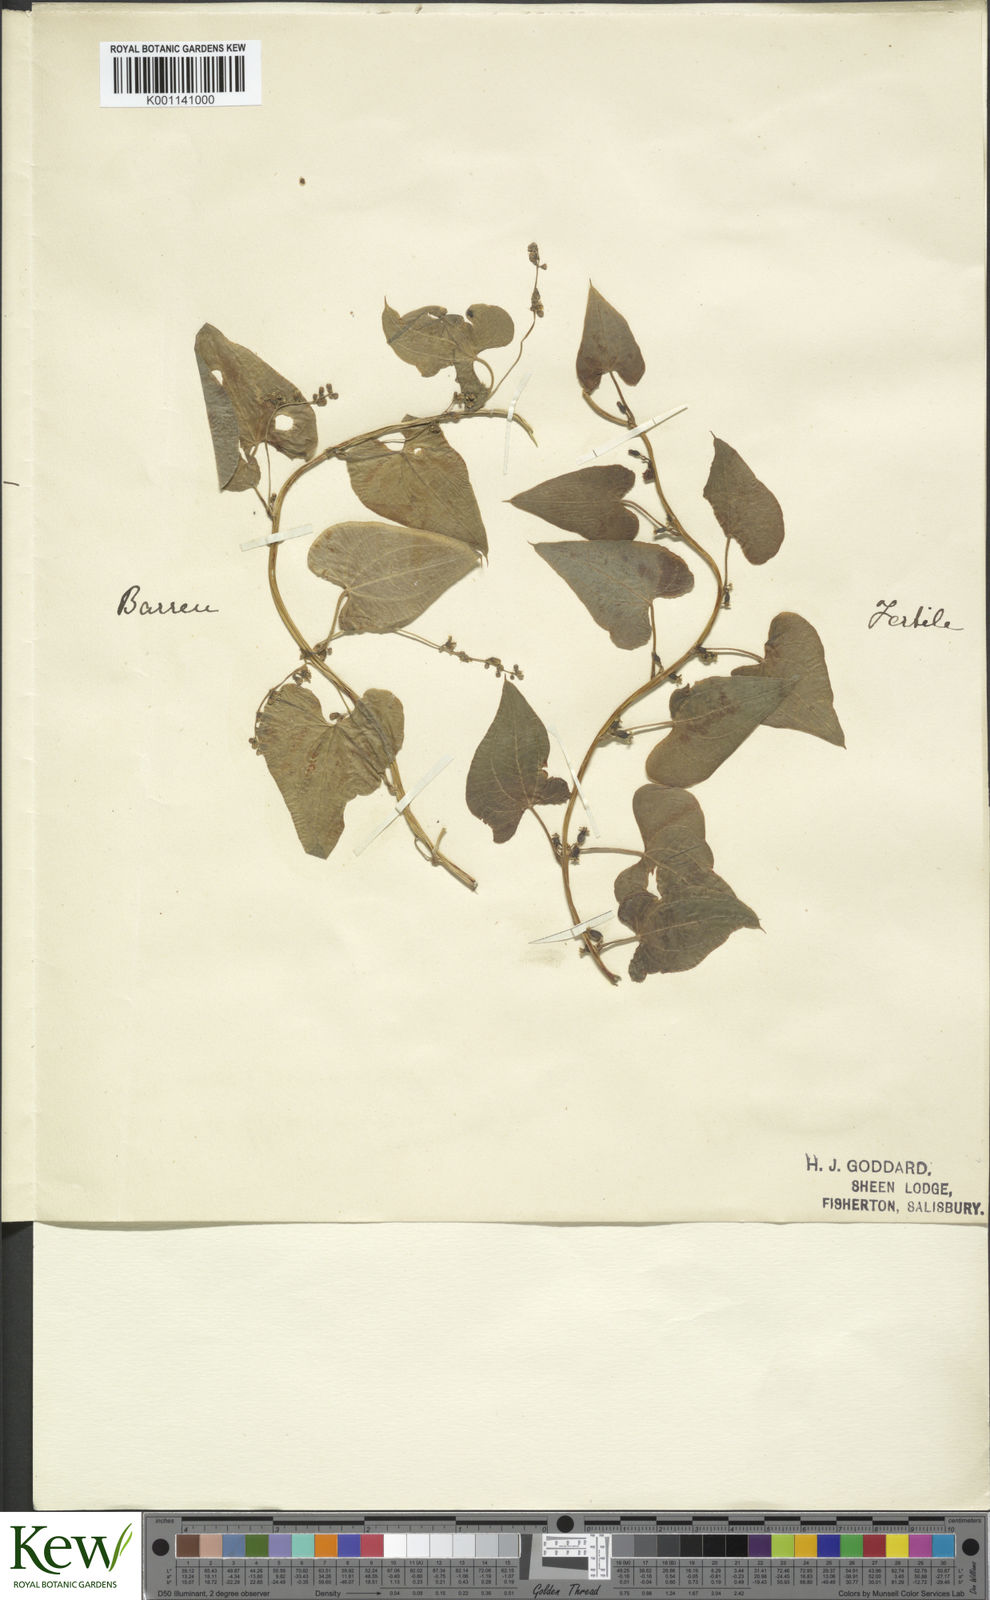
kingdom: Plantae
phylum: Tracheophyta
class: Liliopsida
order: Dioscoreales
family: Dioscoreaceae
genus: Dioscorea
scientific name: Dioscorea communis
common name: Black-bindweed
